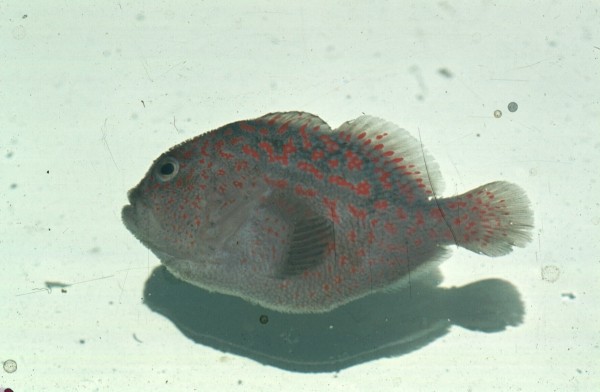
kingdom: Animalia
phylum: Chordata
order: Scorpaeniformes
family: Scorpaenidae
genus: Caracanthus
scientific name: Caracanthus maculatus
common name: Spotted croucher
